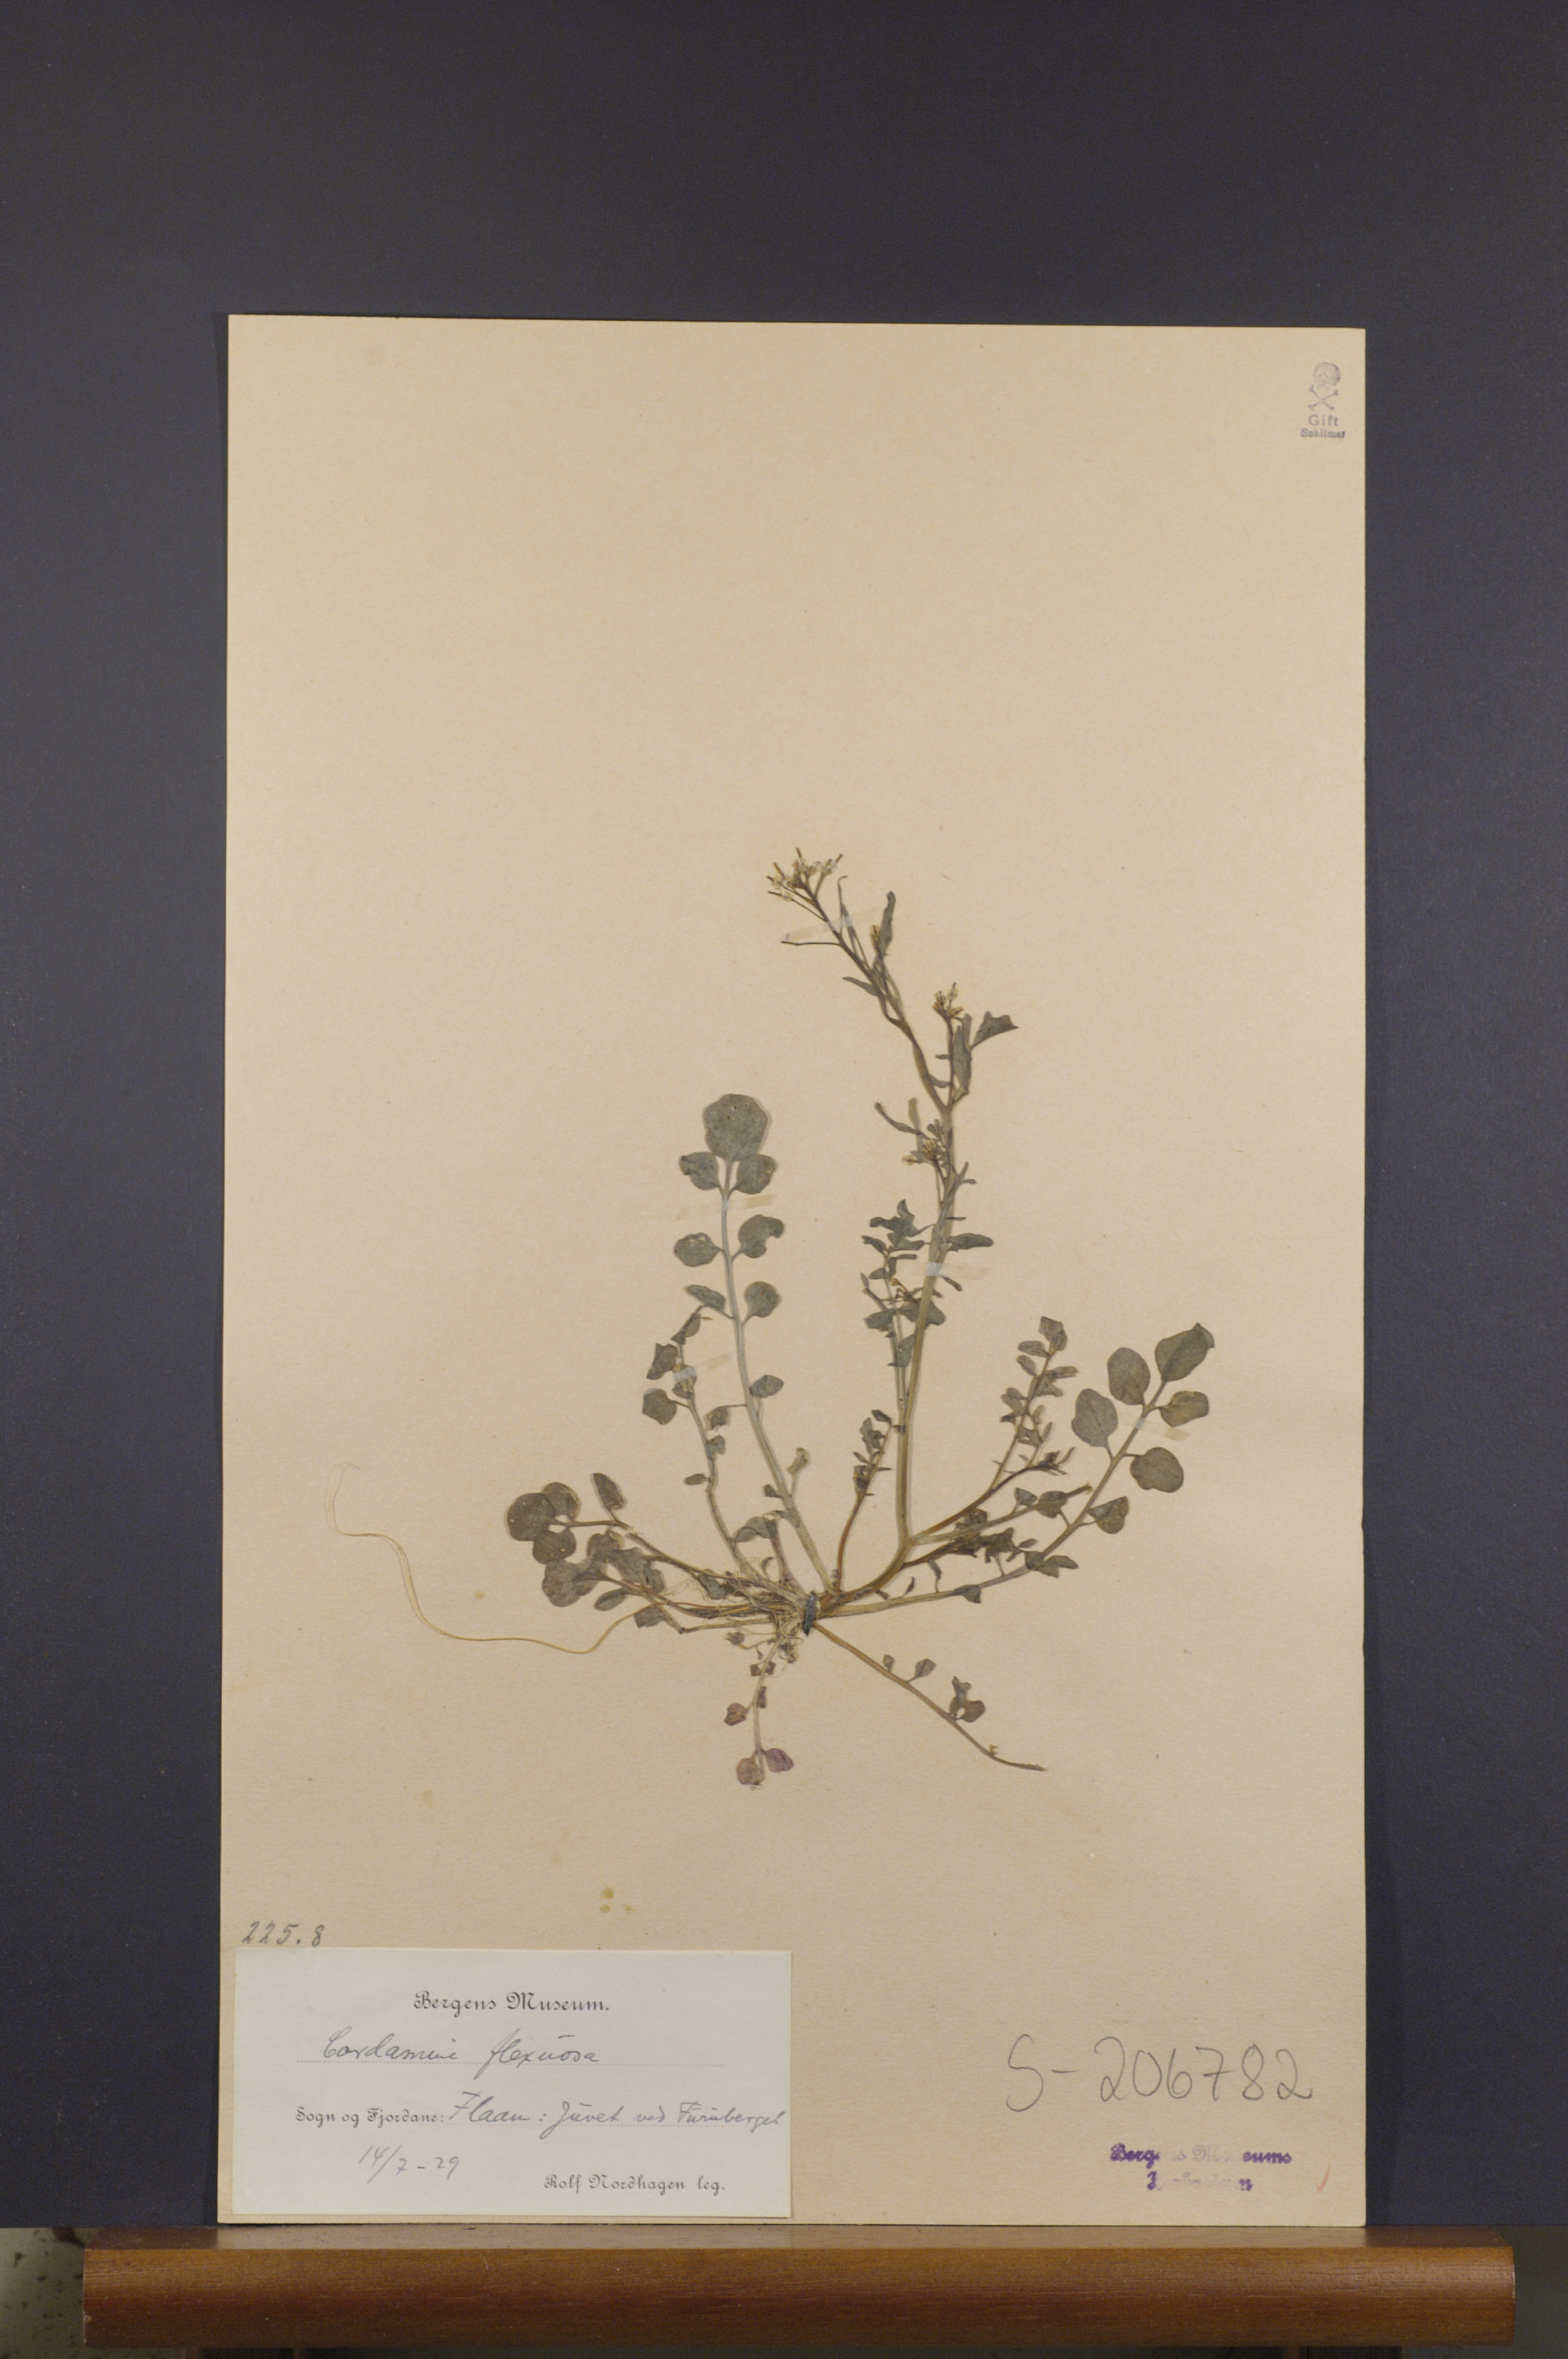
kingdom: Plantae
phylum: Tracheophyta
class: Magnoliopsida
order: Brassicales
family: Brassicaceae
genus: Cardamine
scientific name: Cardamine flexuosa
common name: Woodland bittercress
